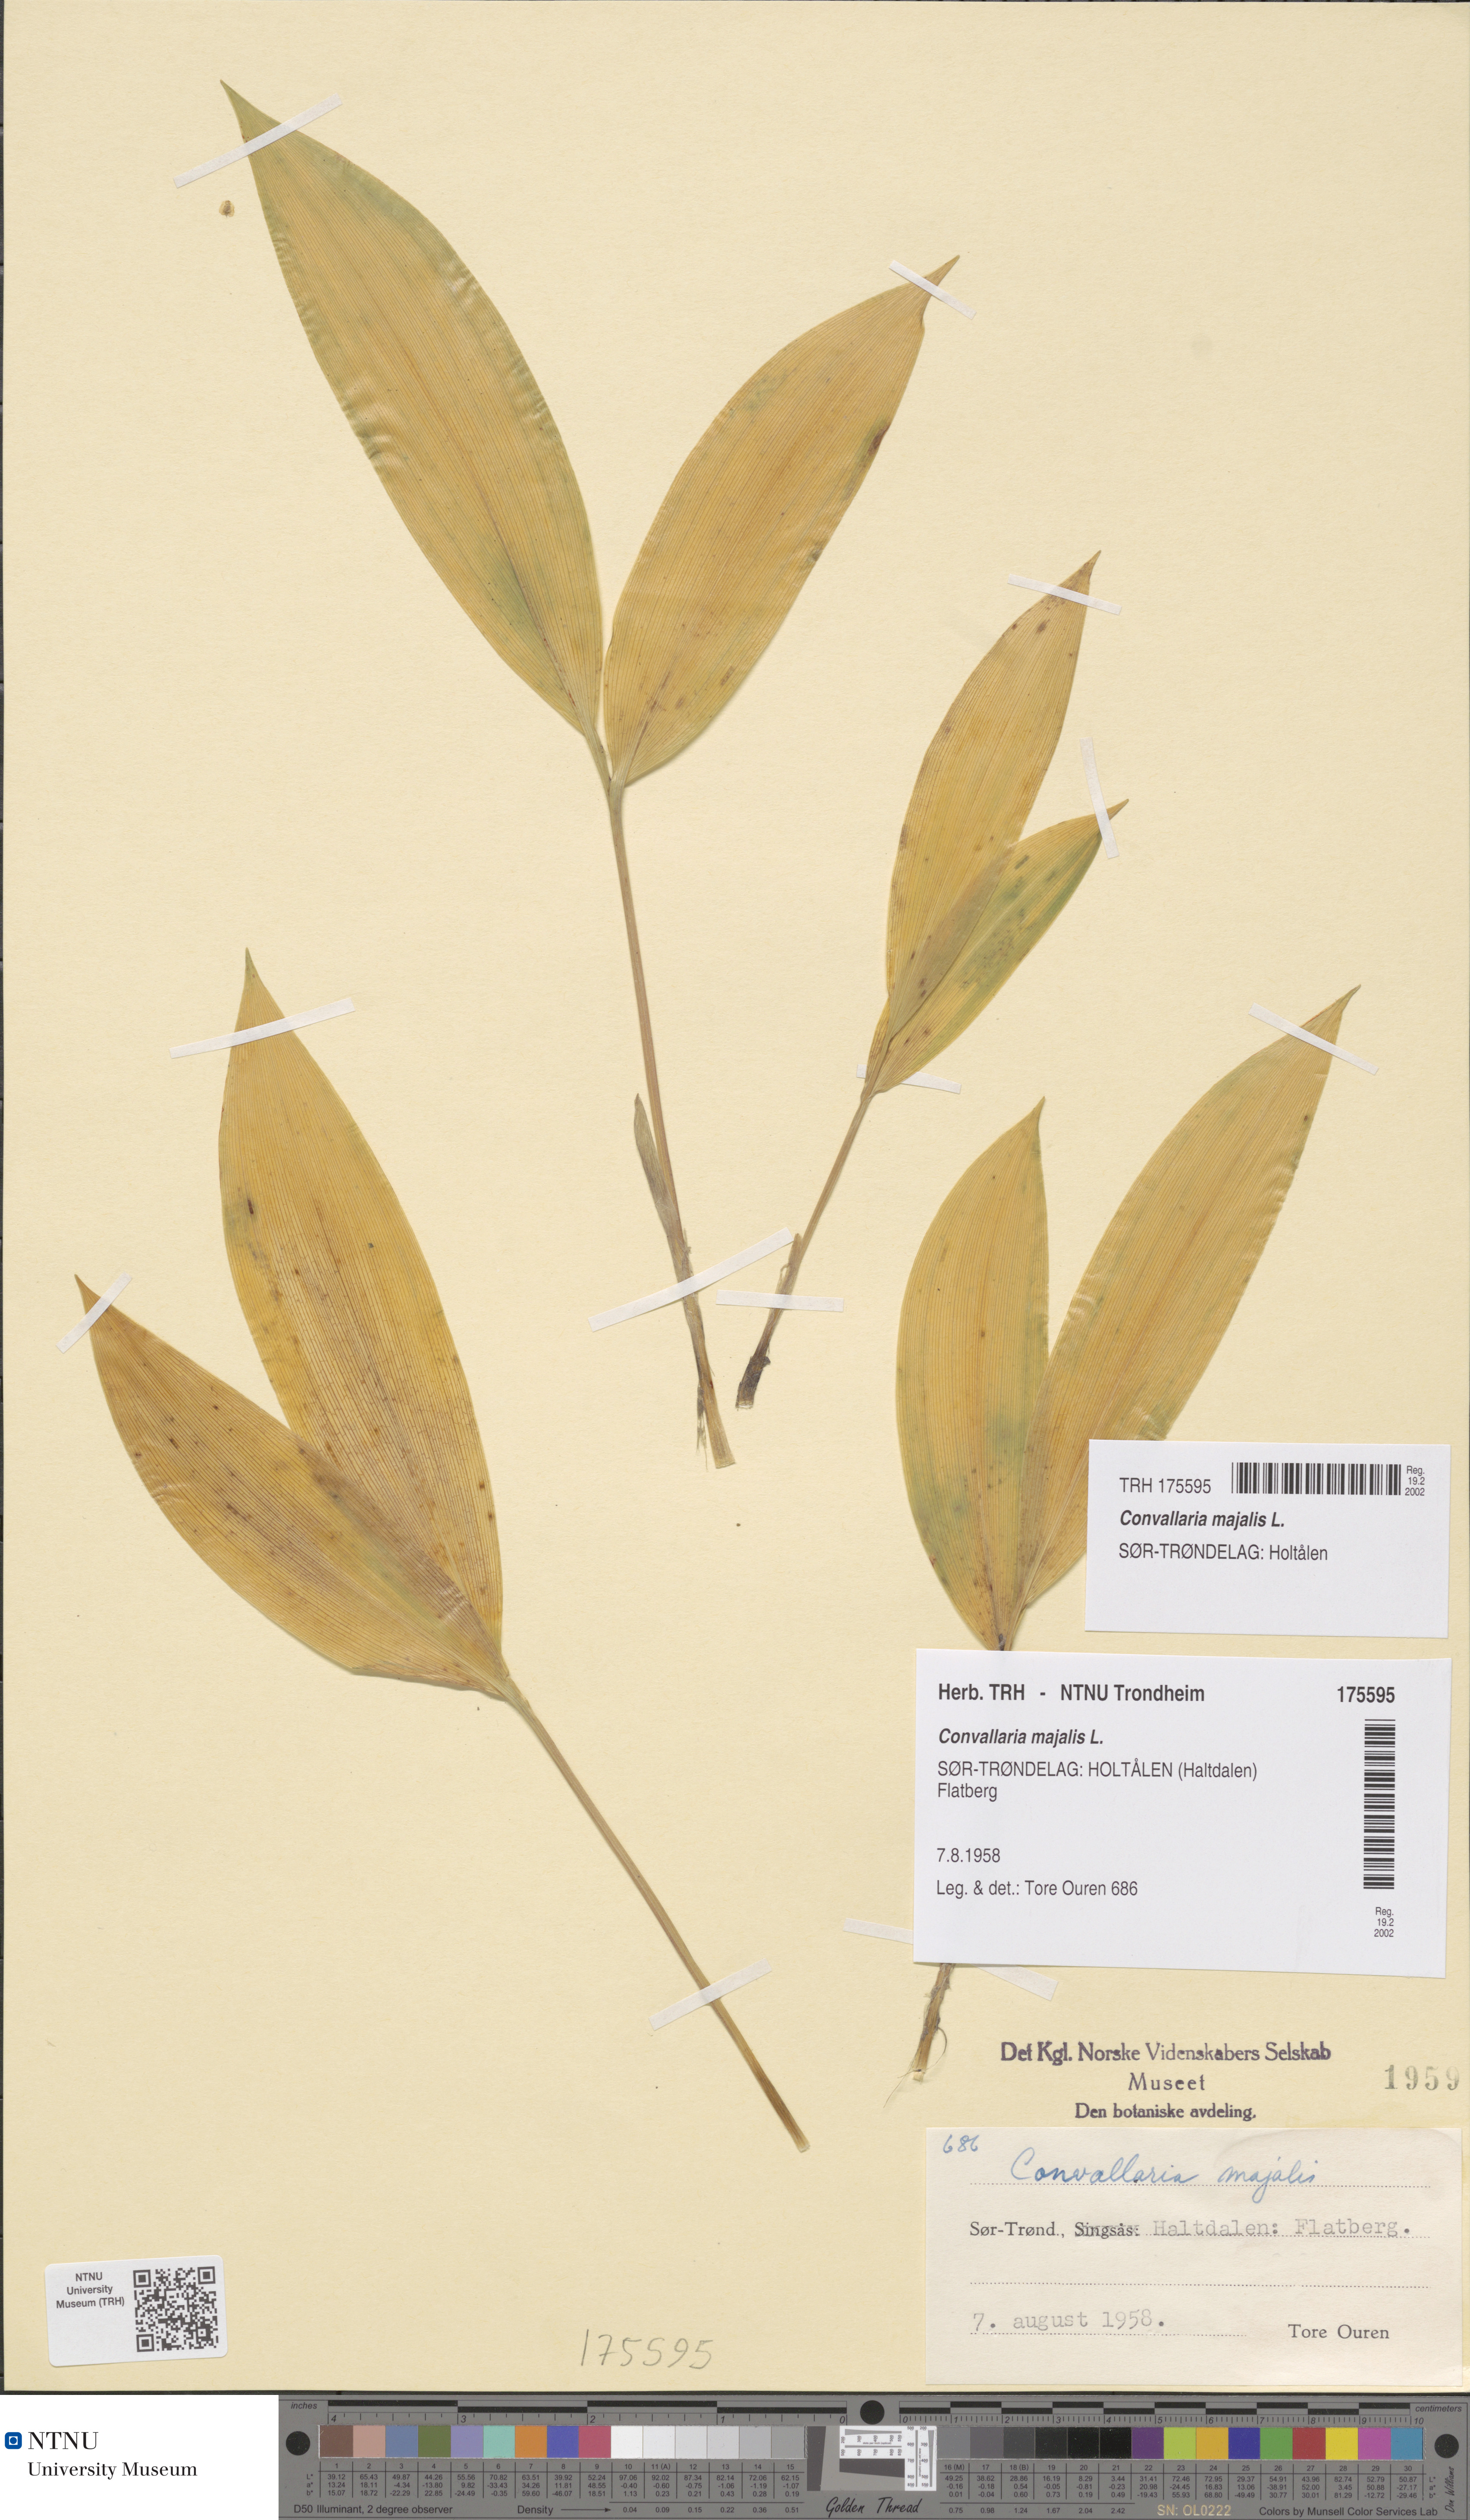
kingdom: Plantae
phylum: Tracheophyta
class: Liliopsida
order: Asparagales
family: Asparagaceae
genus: Convallaria
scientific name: Convallaria majalis
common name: Lily-of-the-valley
